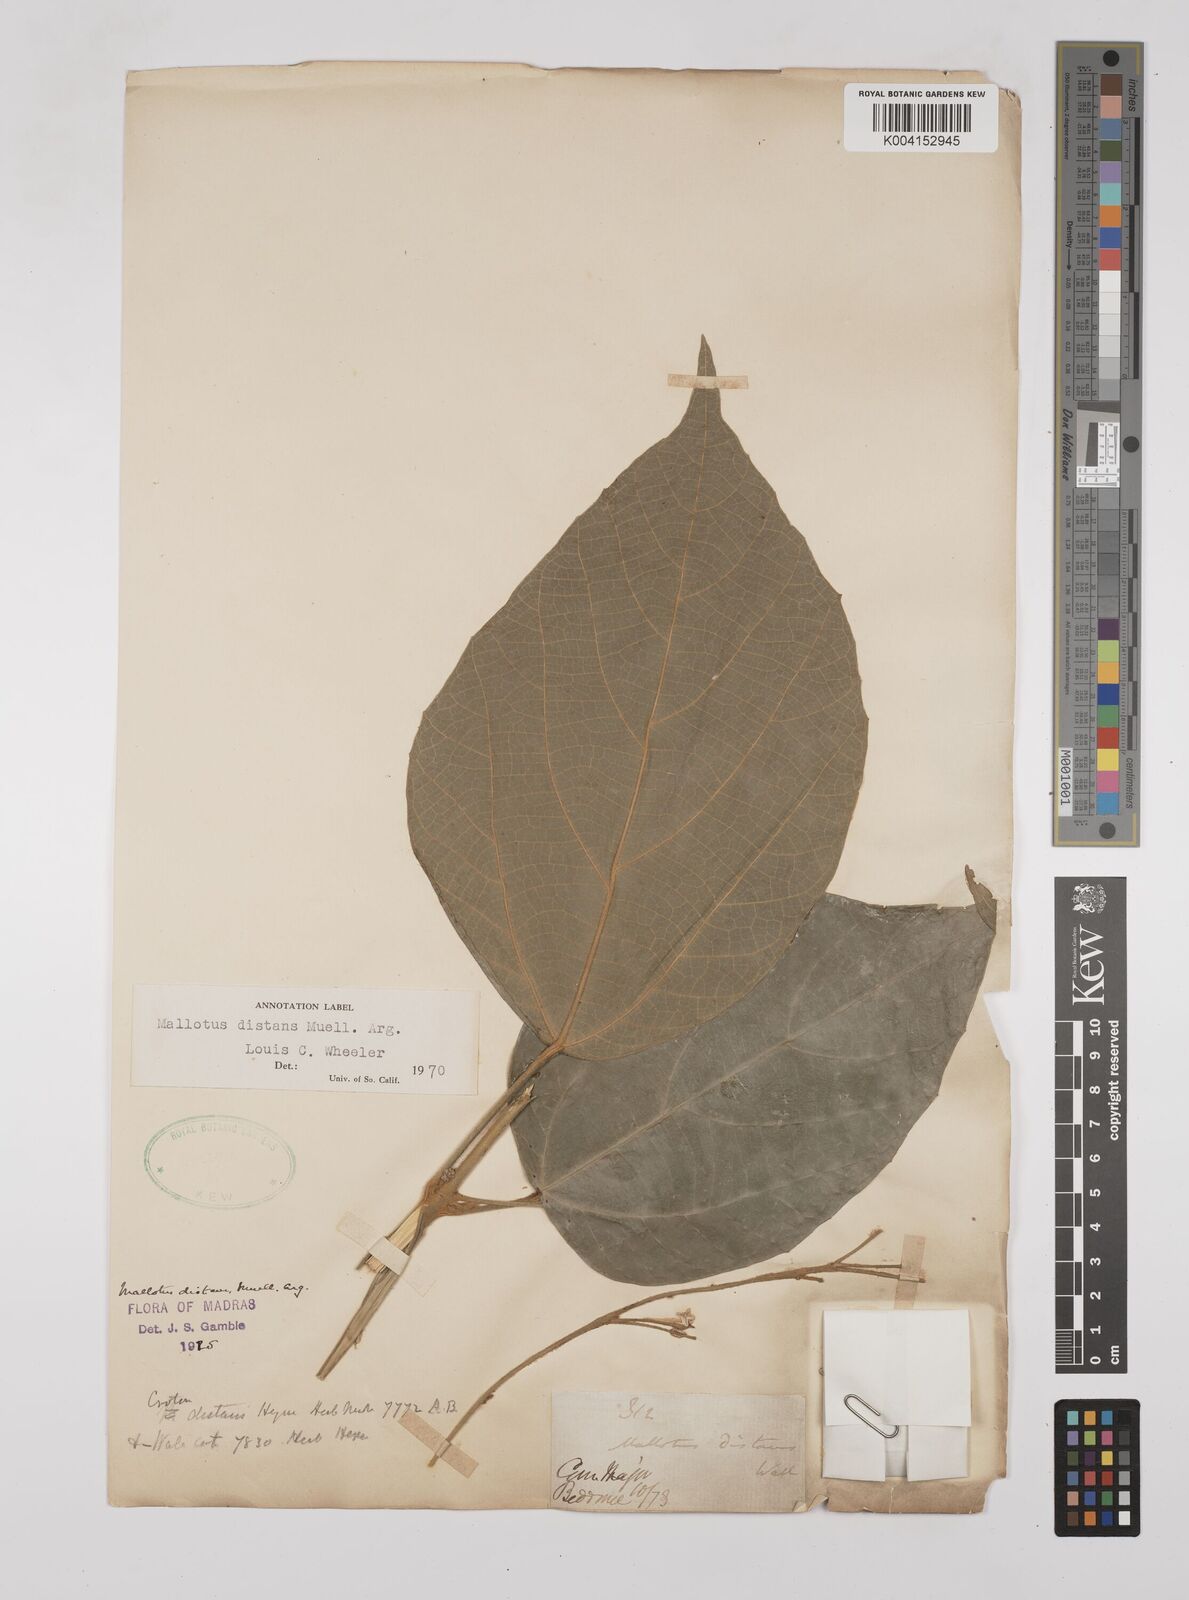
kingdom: Plantae
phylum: Tracheophyta
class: Magnoliopsida
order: Malpighiales
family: Euphorbiaceae
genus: Mallotus
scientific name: Mallotus distans
